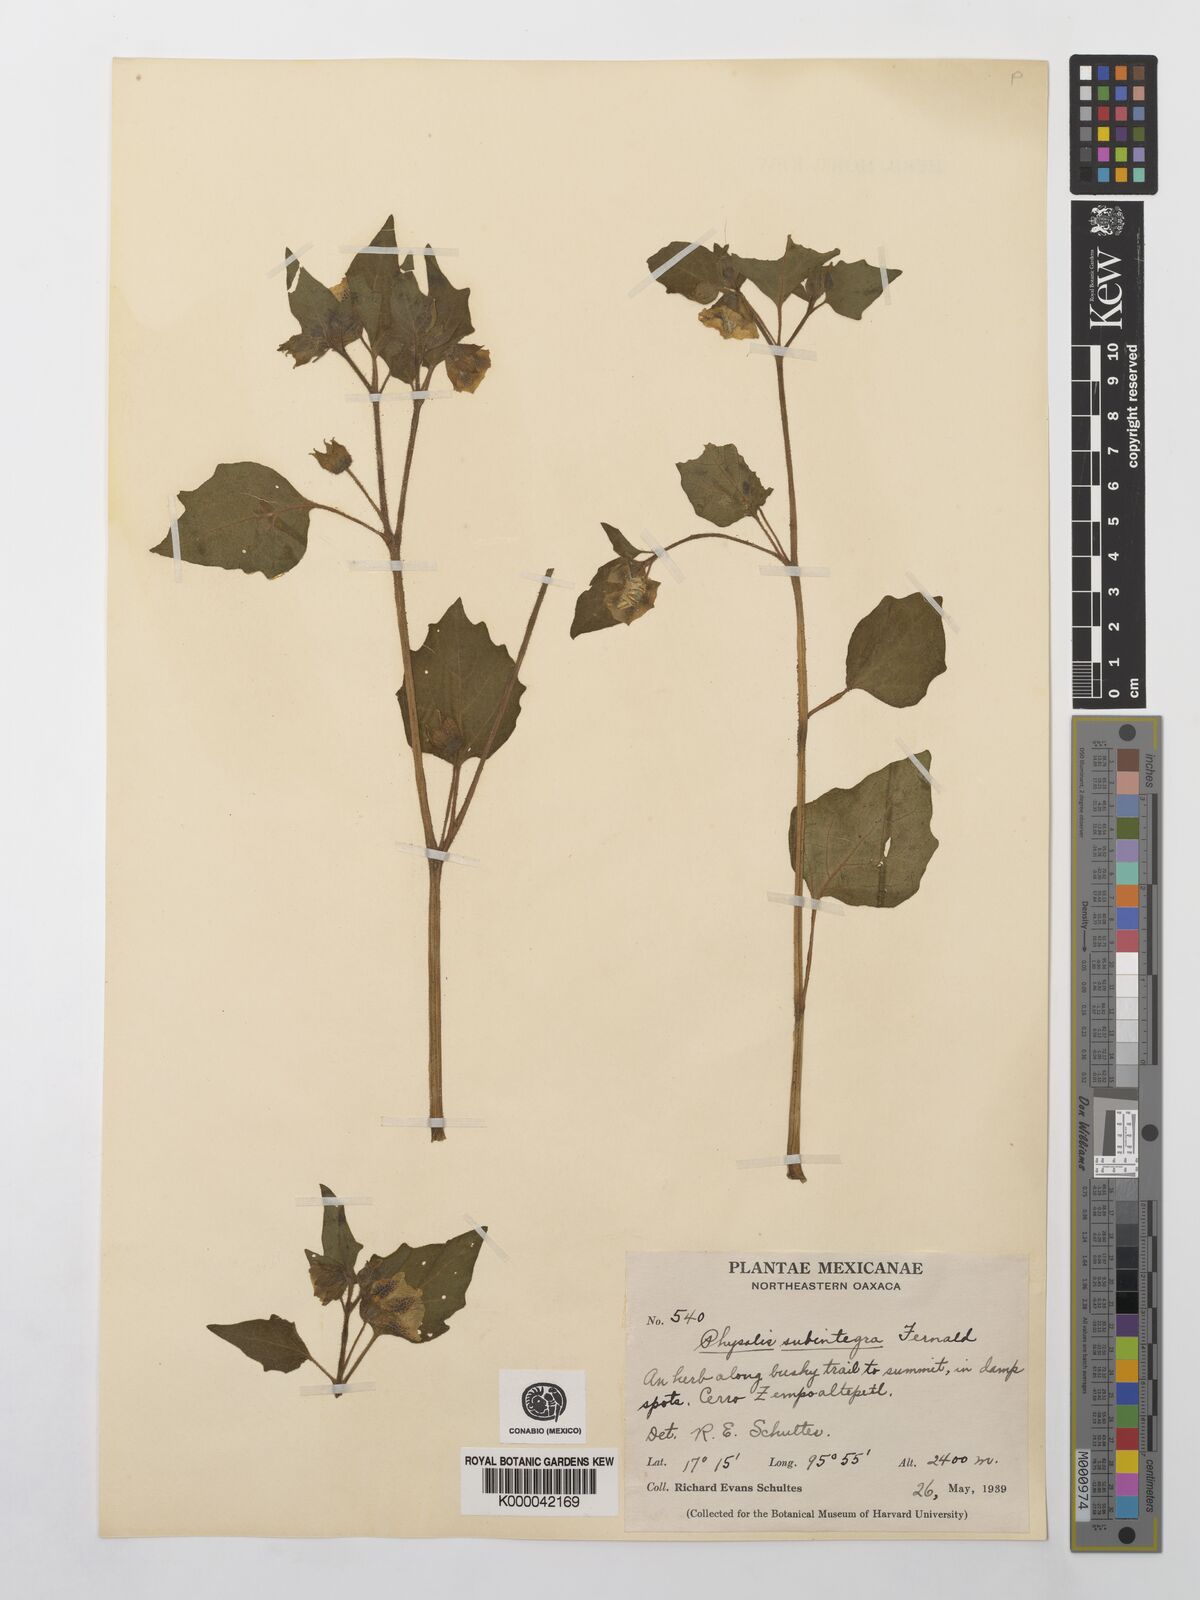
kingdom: Plantae
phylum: Tracheophyta
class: Magnoliopsida
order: Solanales
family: Solanaceae
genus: Physalis
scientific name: Physalis orizabae
